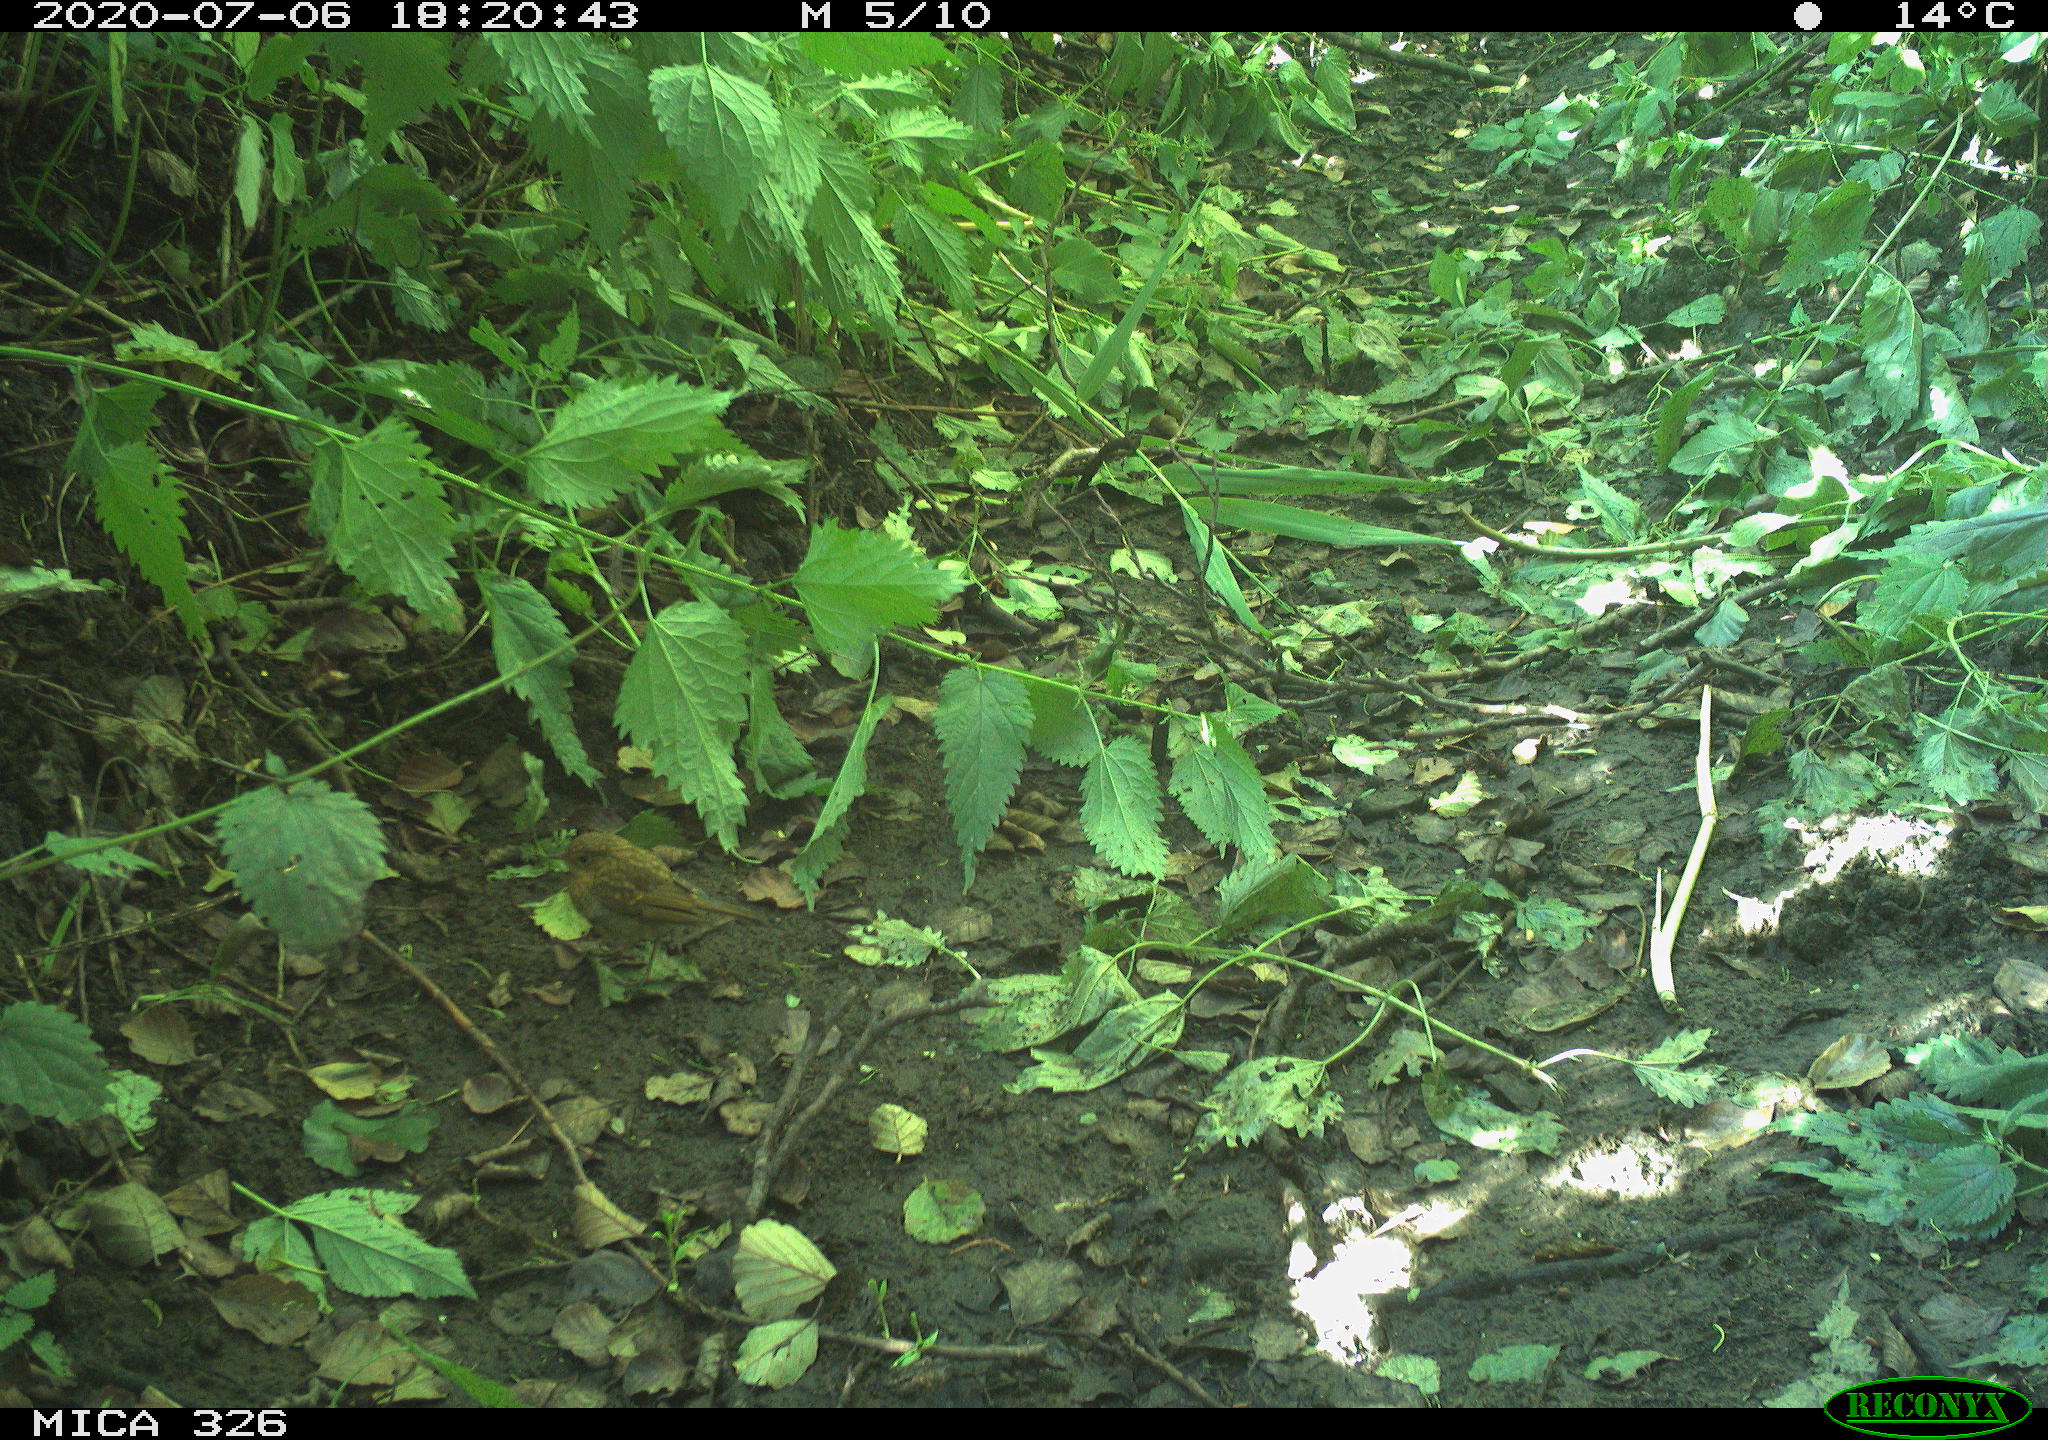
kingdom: Animalia
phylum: Chordata
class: Aves
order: Passeriformes
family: Muscicapidae
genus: Erithacus
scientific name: Erithacus rubecula
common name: European robin
